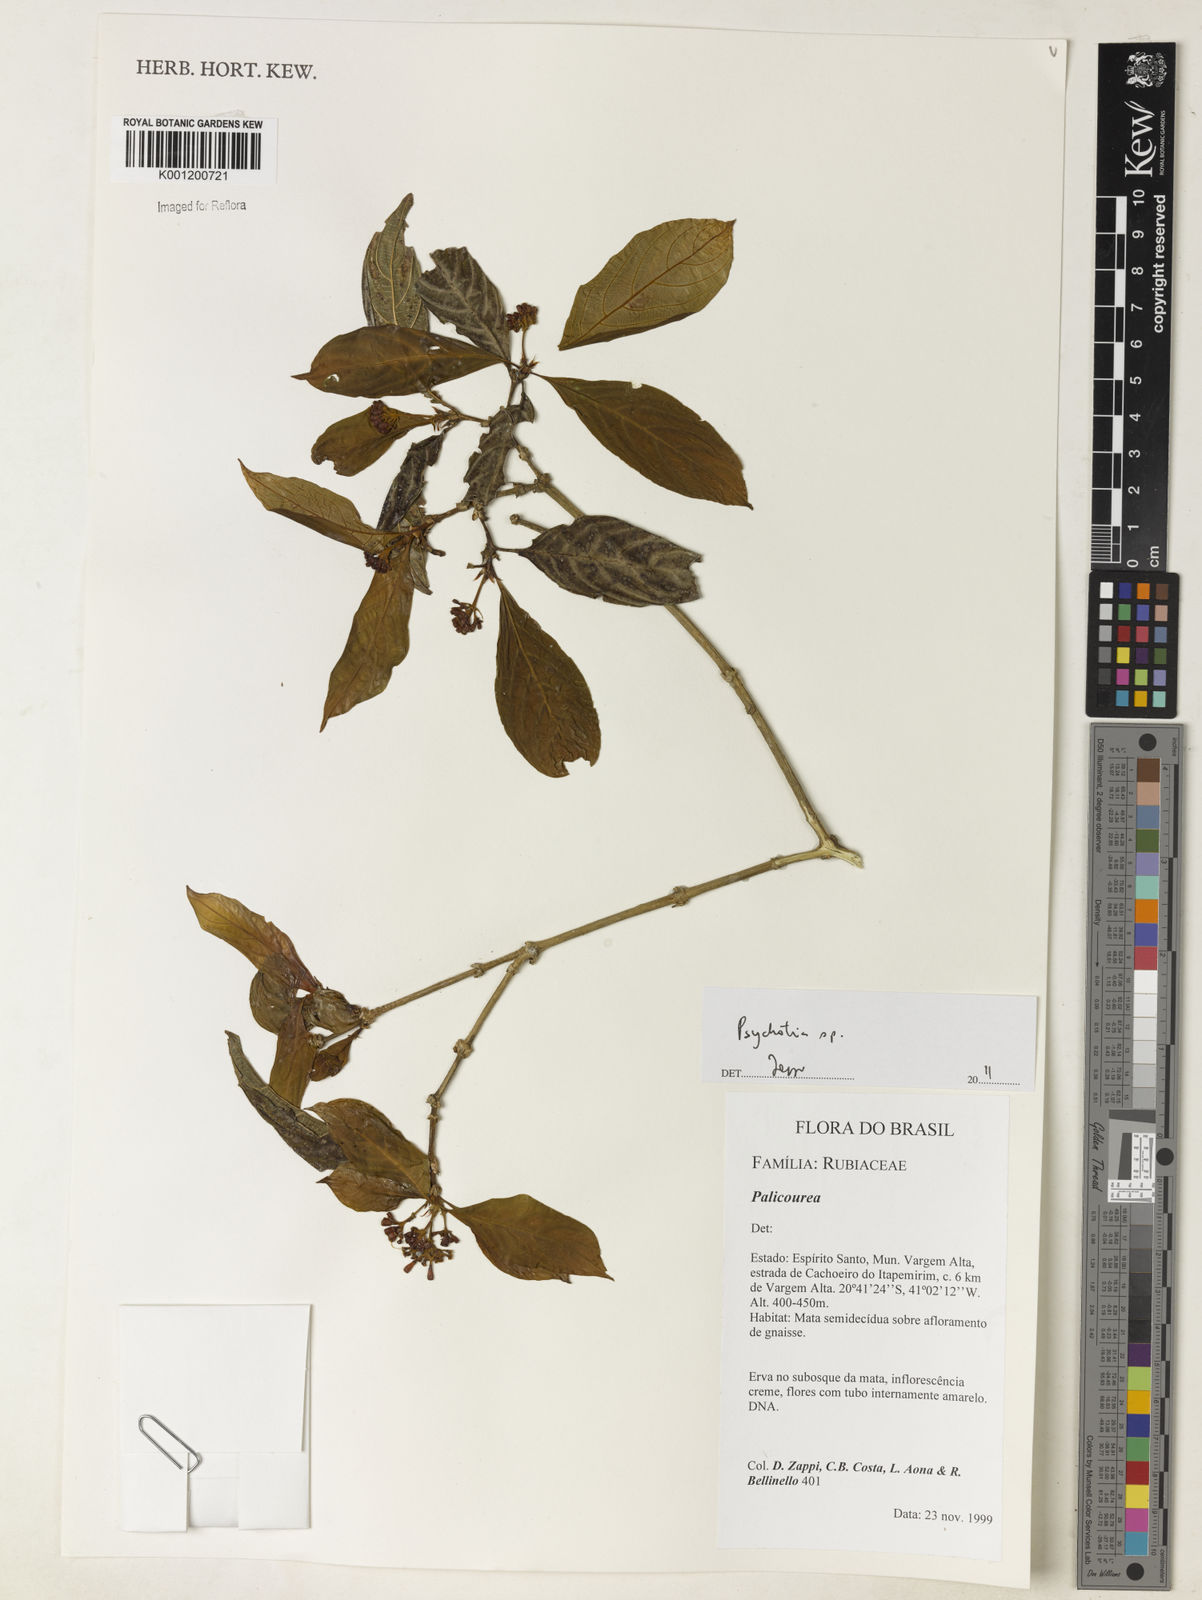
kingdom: Plantae
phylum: Tracheophyta
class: Magnoliopsida
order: Gentianales
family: Rubiaceae
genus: Psychotria
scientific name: Psychotria
